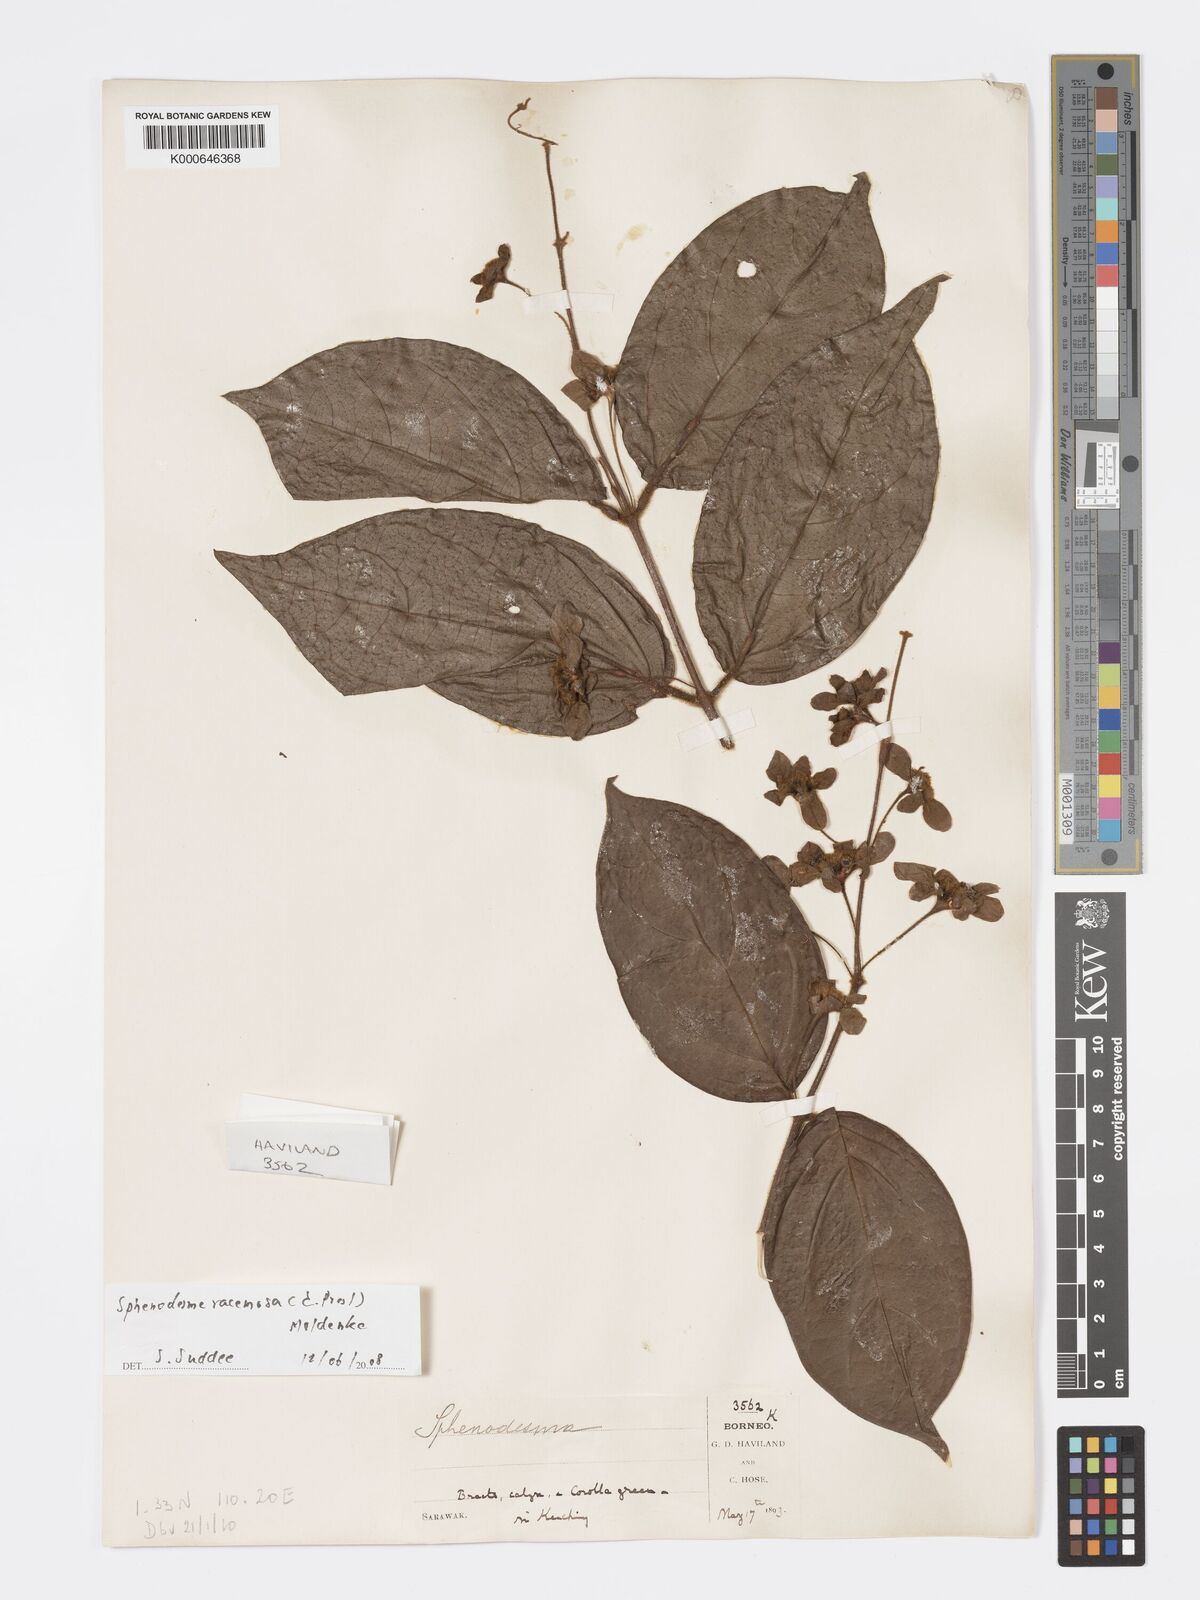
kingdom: Plantae
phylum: Tracheophyta
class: Magnoliopsida
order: Lamiales
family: Lamiaceae
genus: Sphenodesme
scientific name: Sphenodesme racemosa
